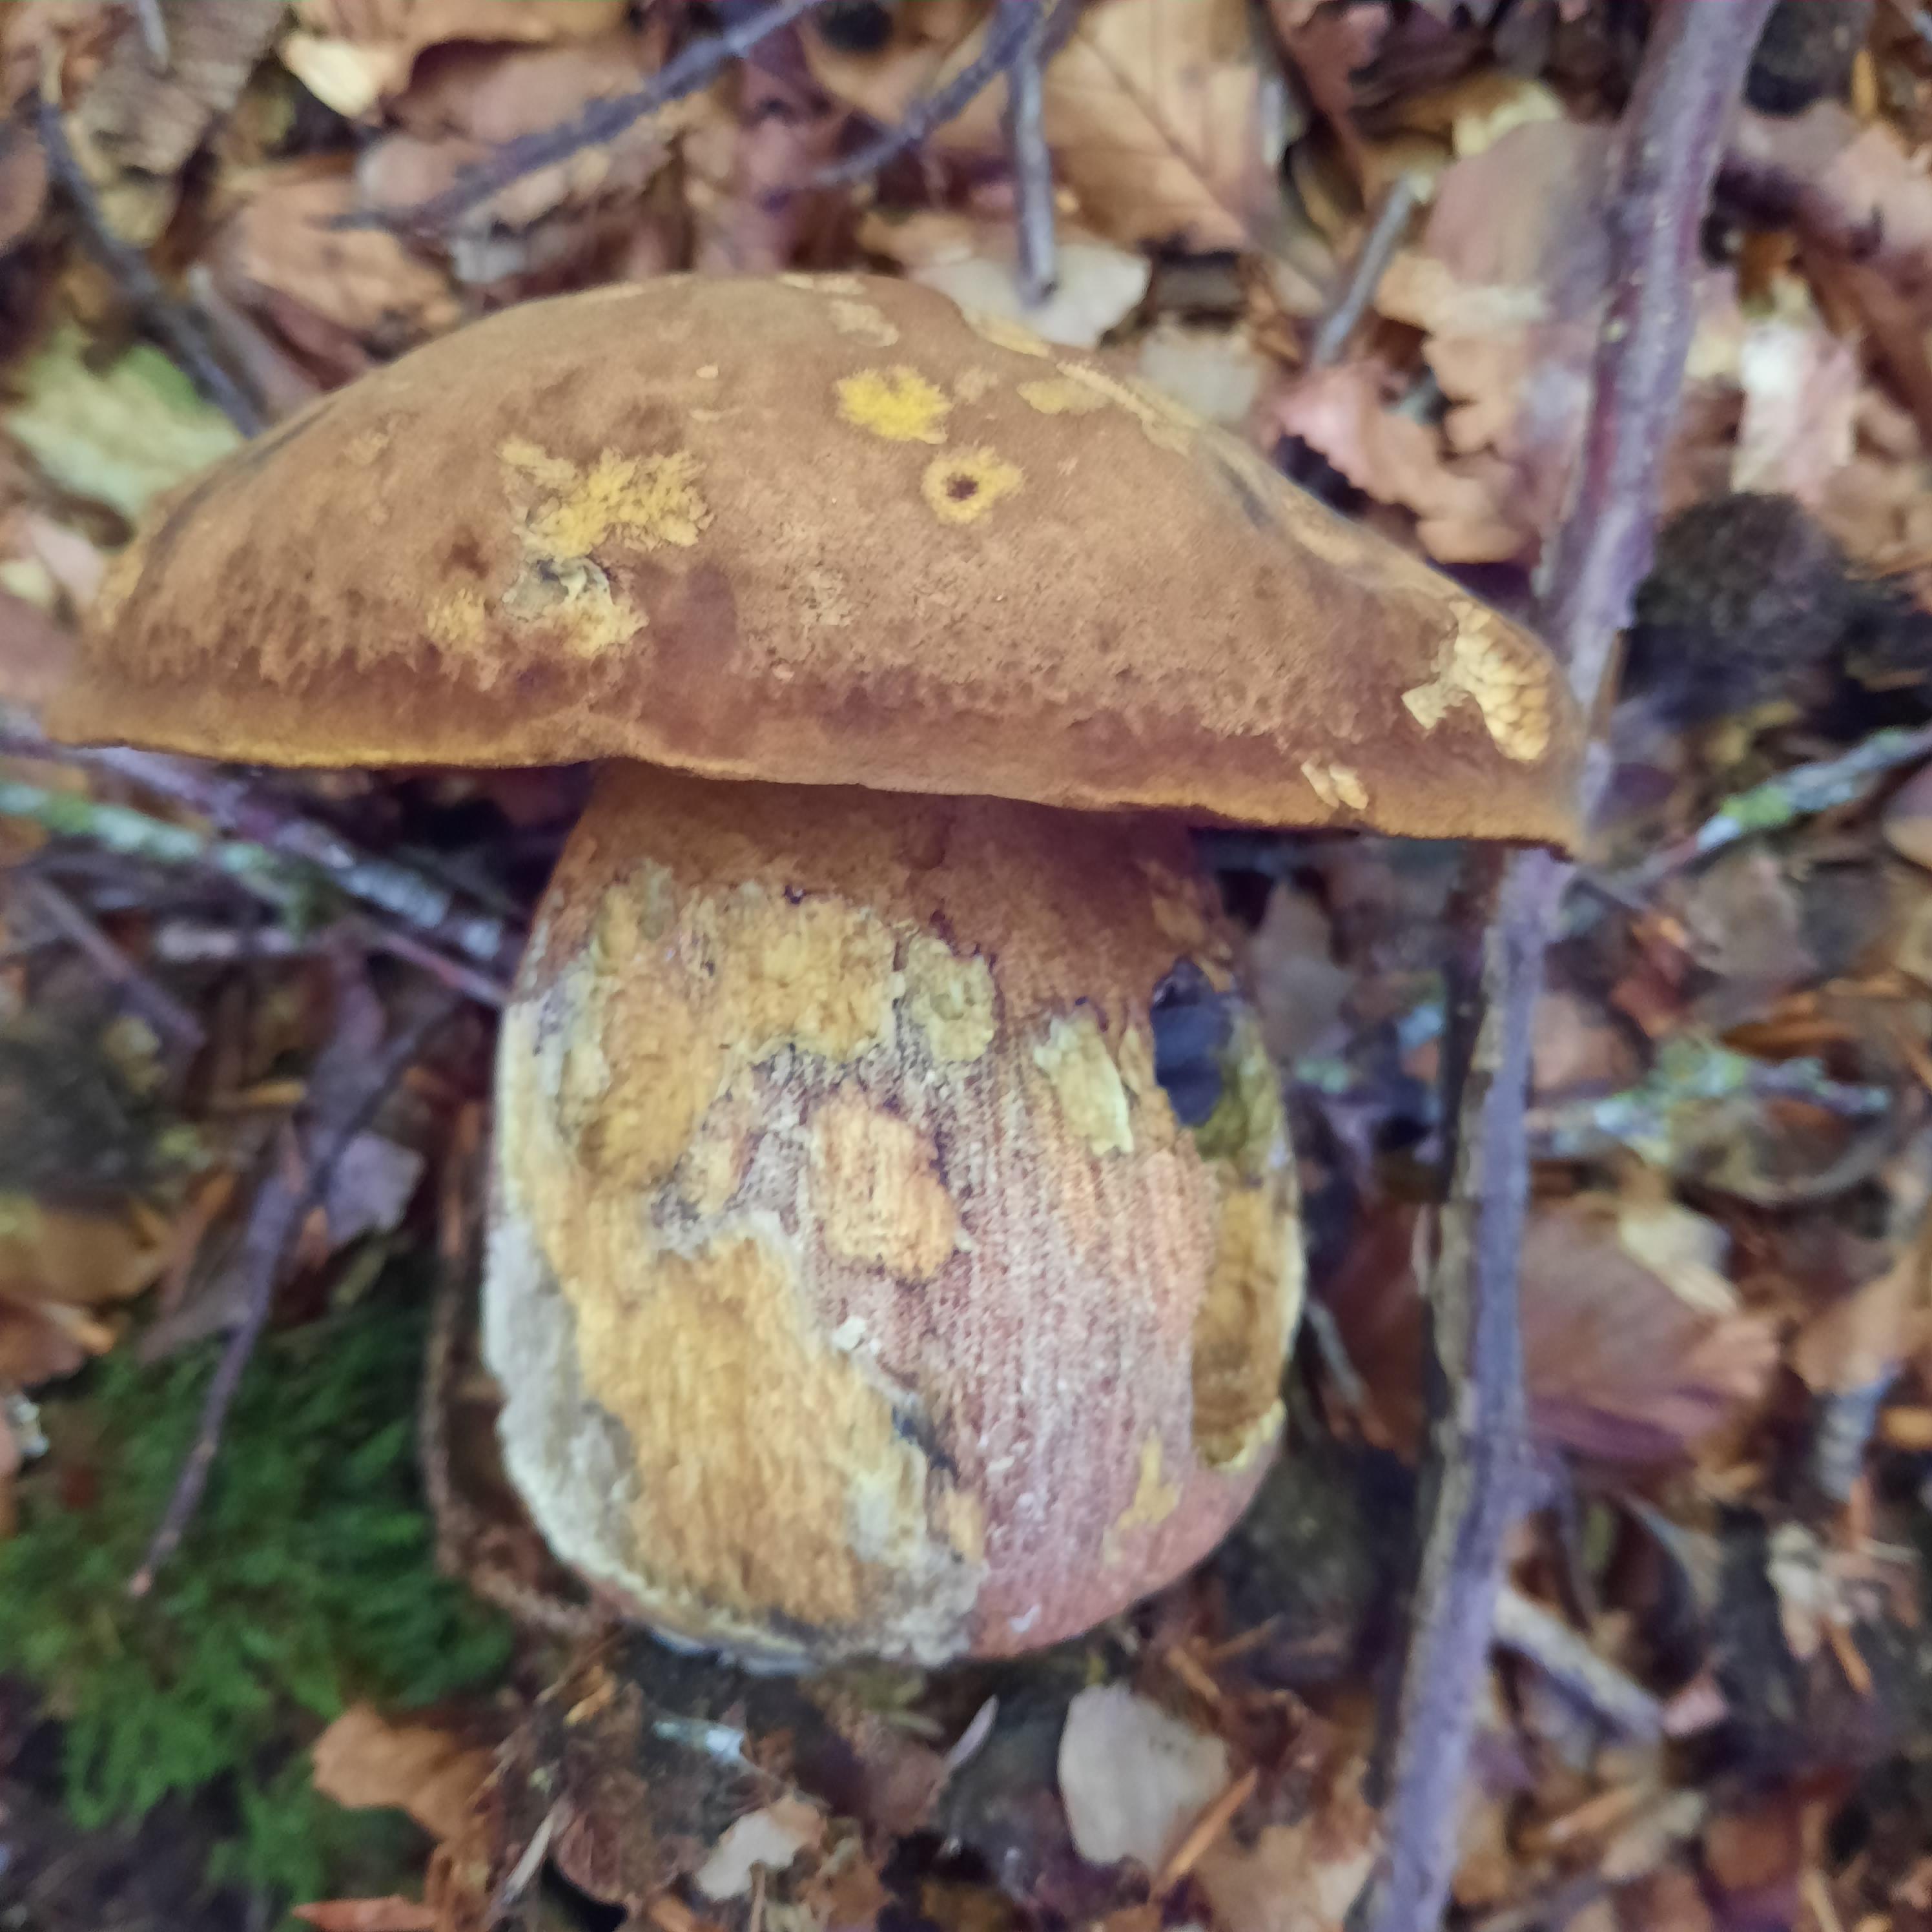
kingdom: Fungi
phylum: Basidiomycota
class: Agaricomycetes
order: Boletales
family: Boletaceae
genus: Neoboletus
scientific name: Neoboletus erythropus
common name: punktstokket indigorørhat
